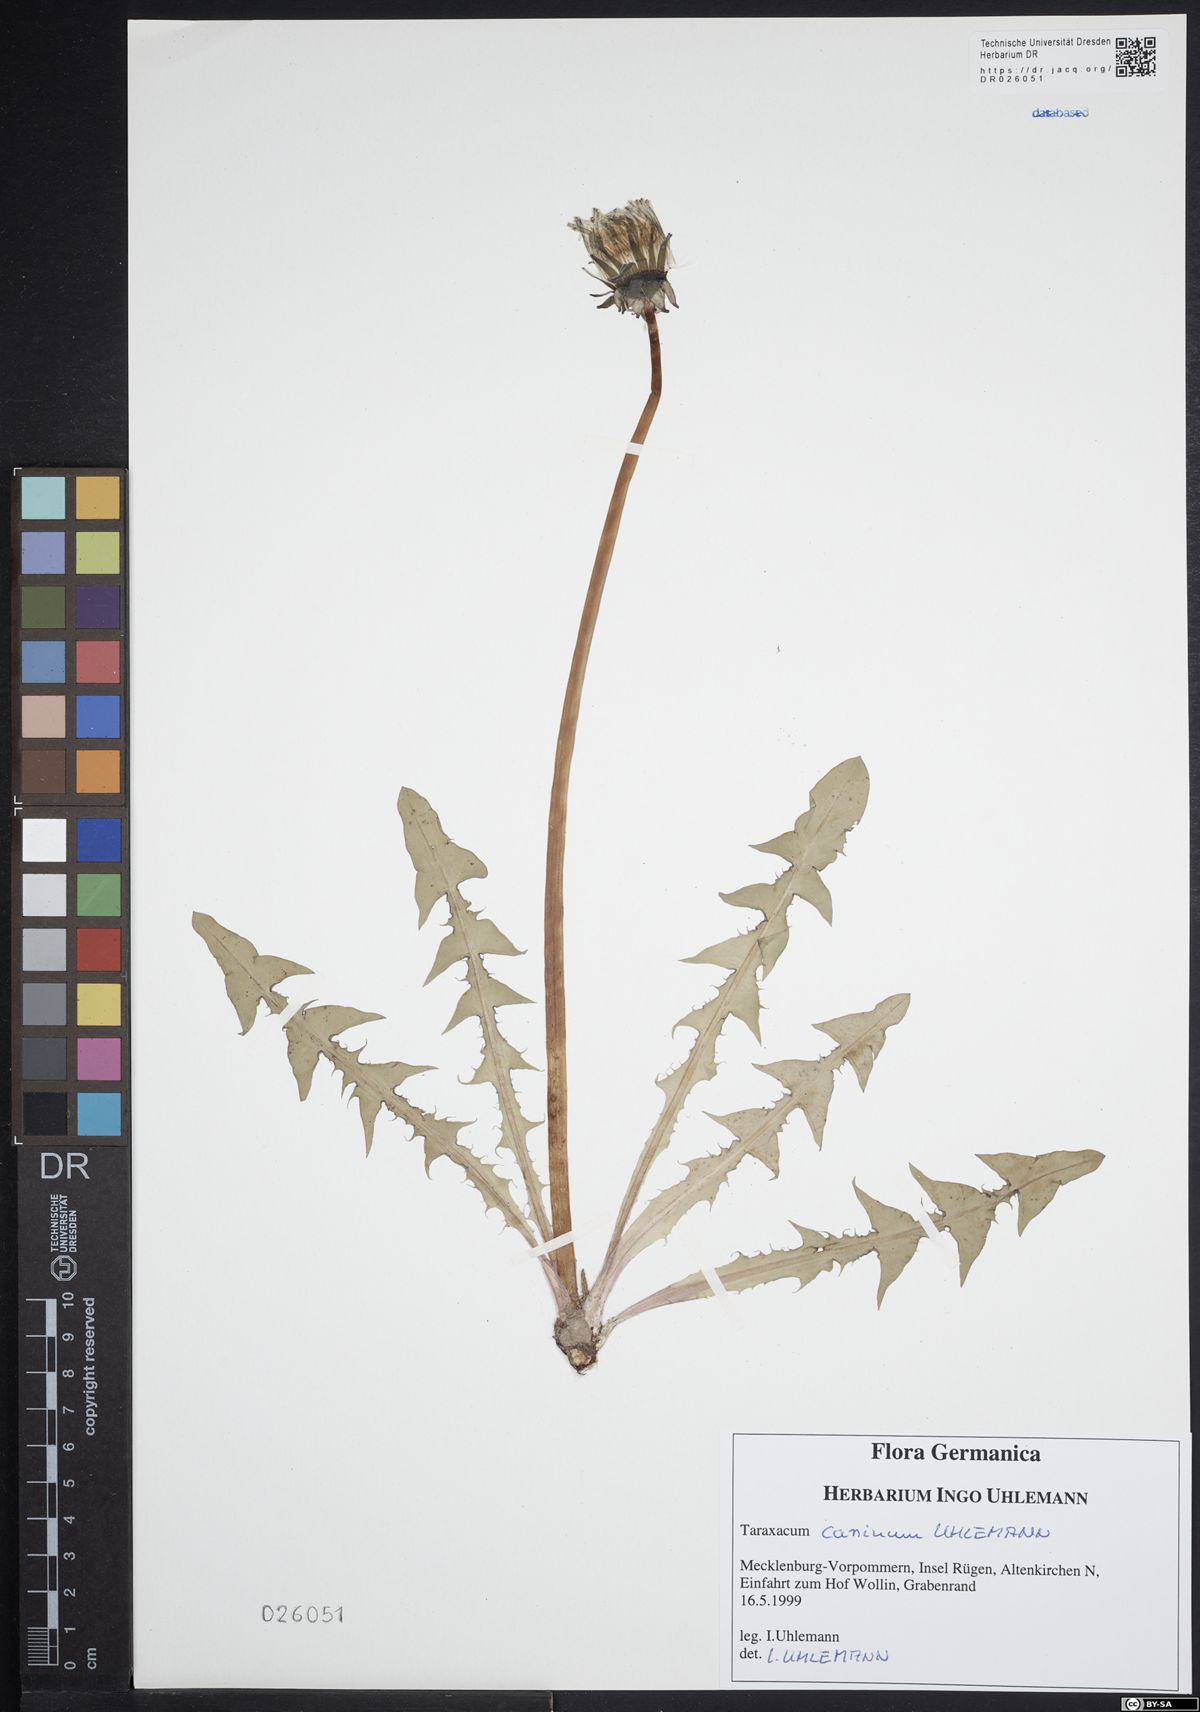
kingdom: Plantae
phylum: Tracheophyta
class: Magnoliopsida
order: Asterales
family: Asteraceae
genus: Taraxacum
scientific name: Taraxacum caninum
